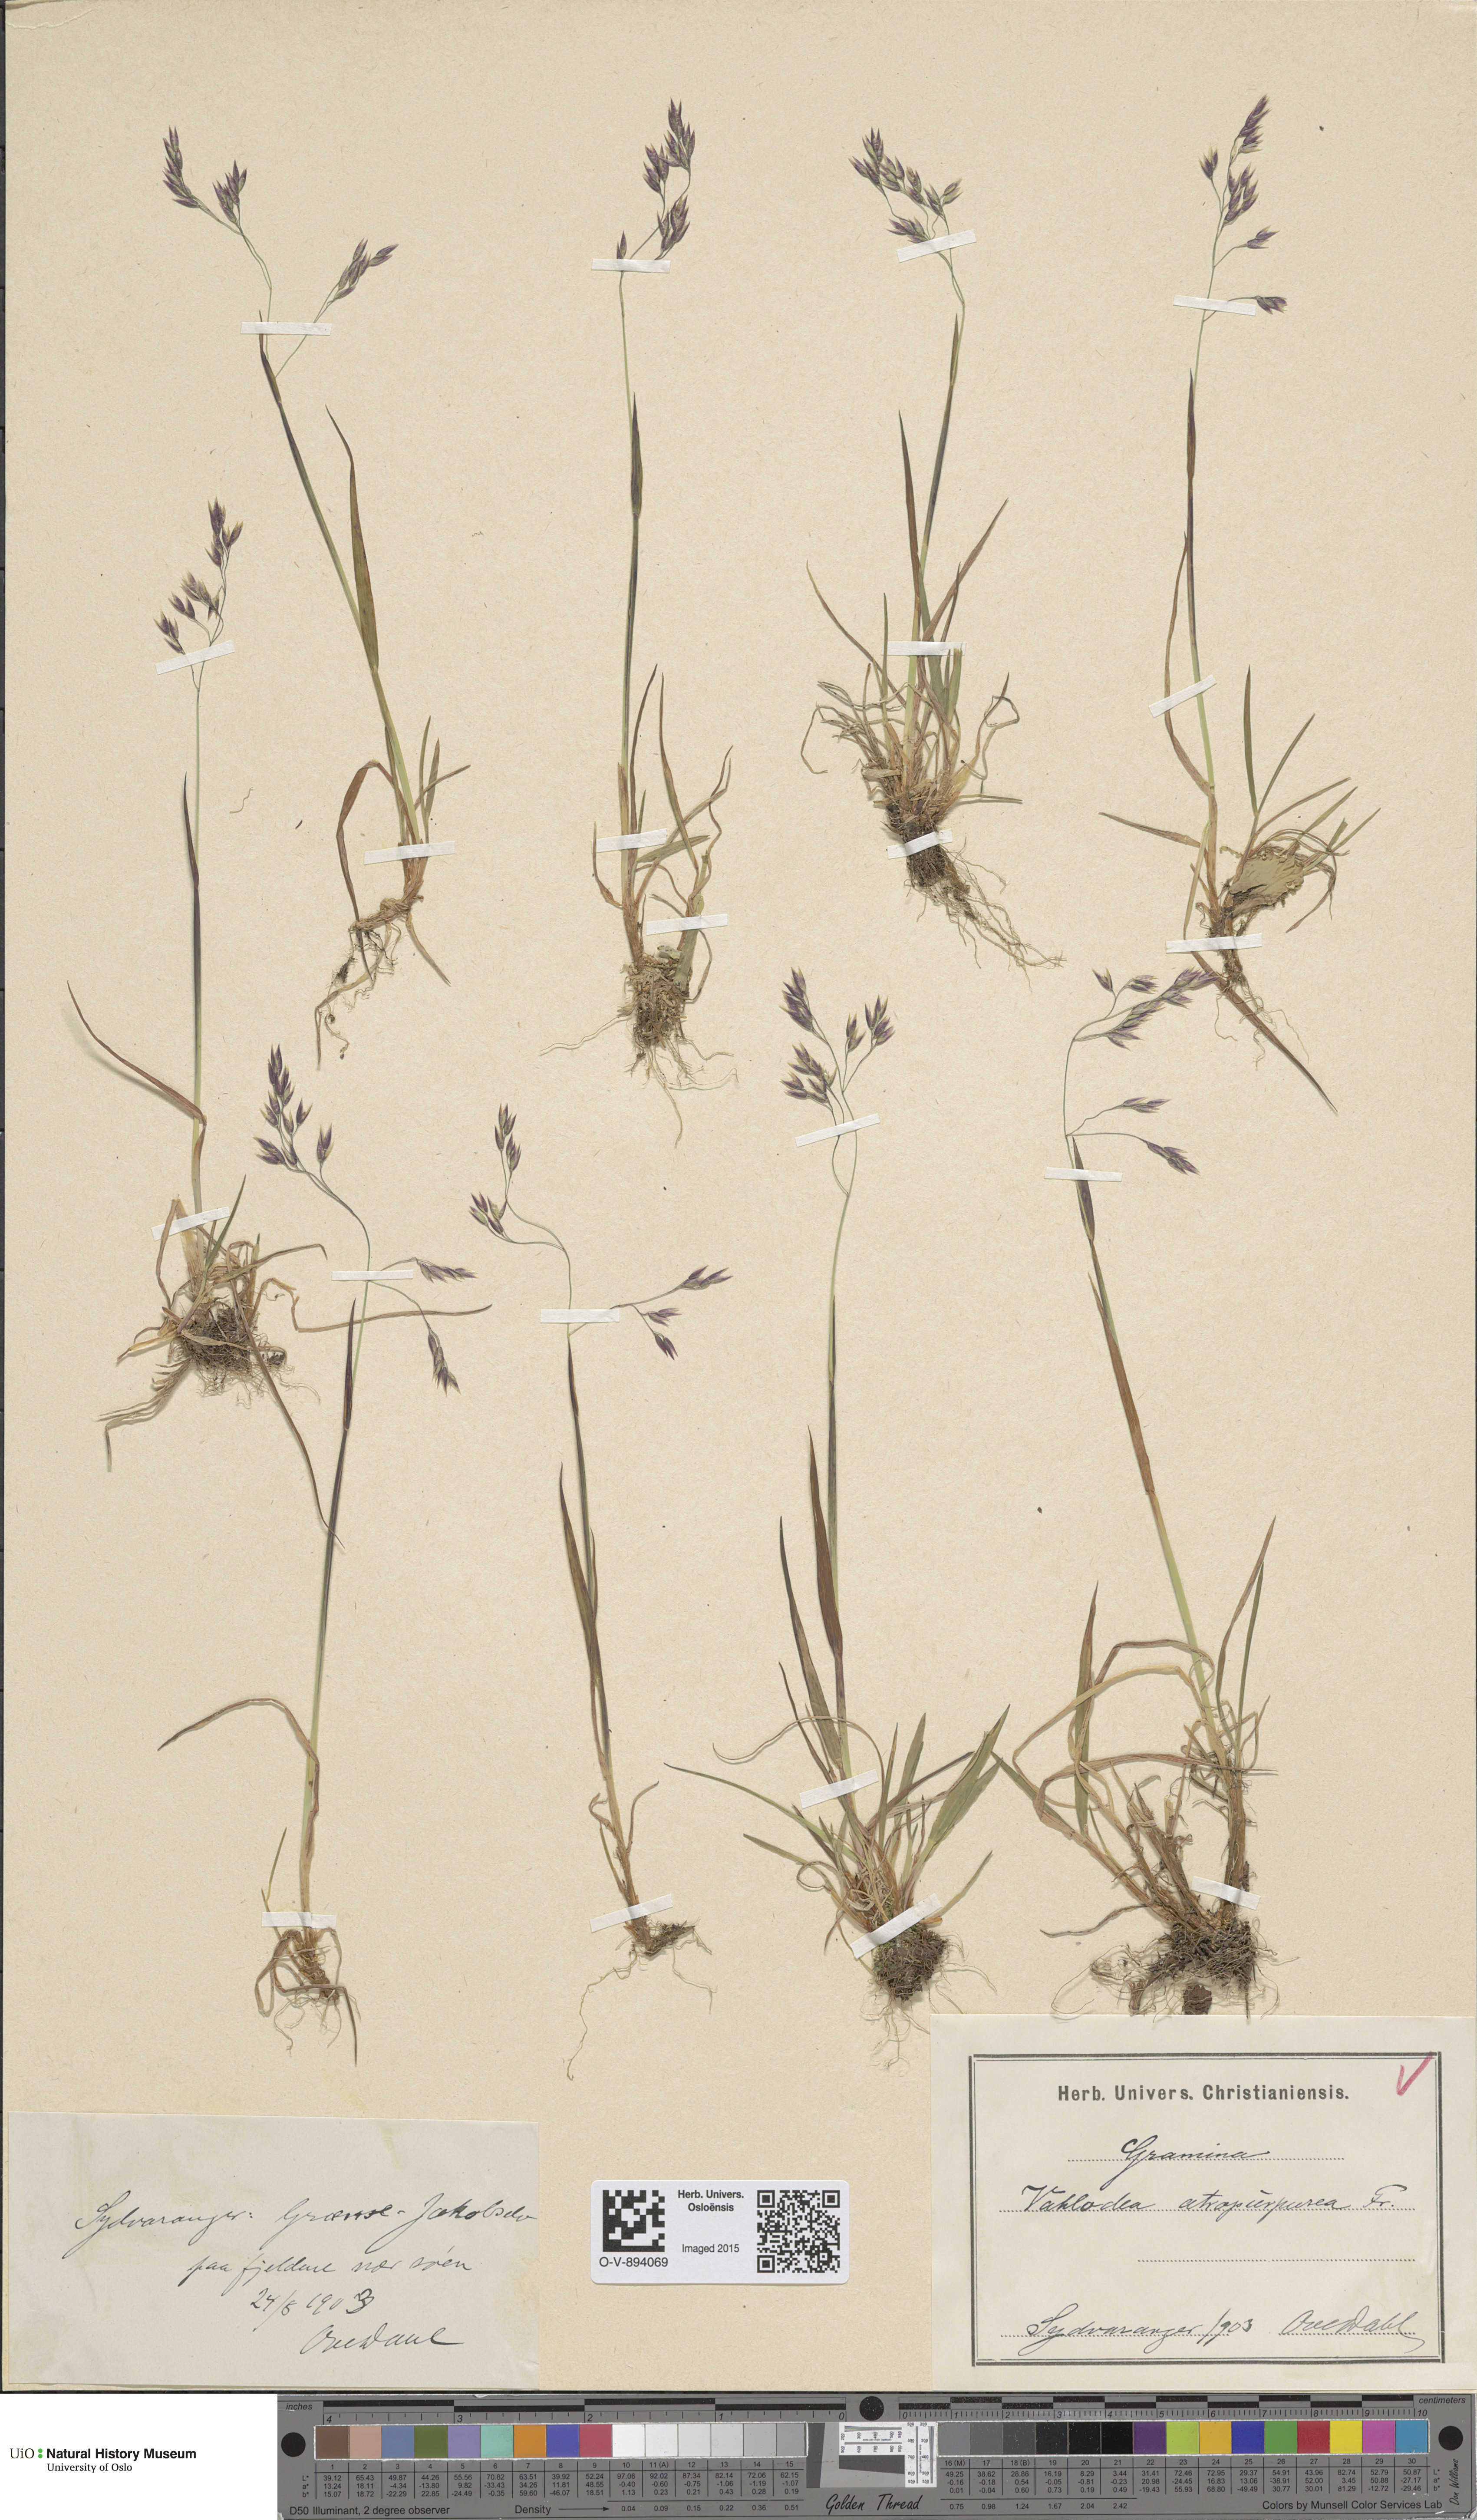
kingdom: Plantae
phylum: Tracheophyta
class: Liliopsida
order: Poales
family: Poaceae
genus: Vahlodea
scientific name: Vahlodea atropurpurea
